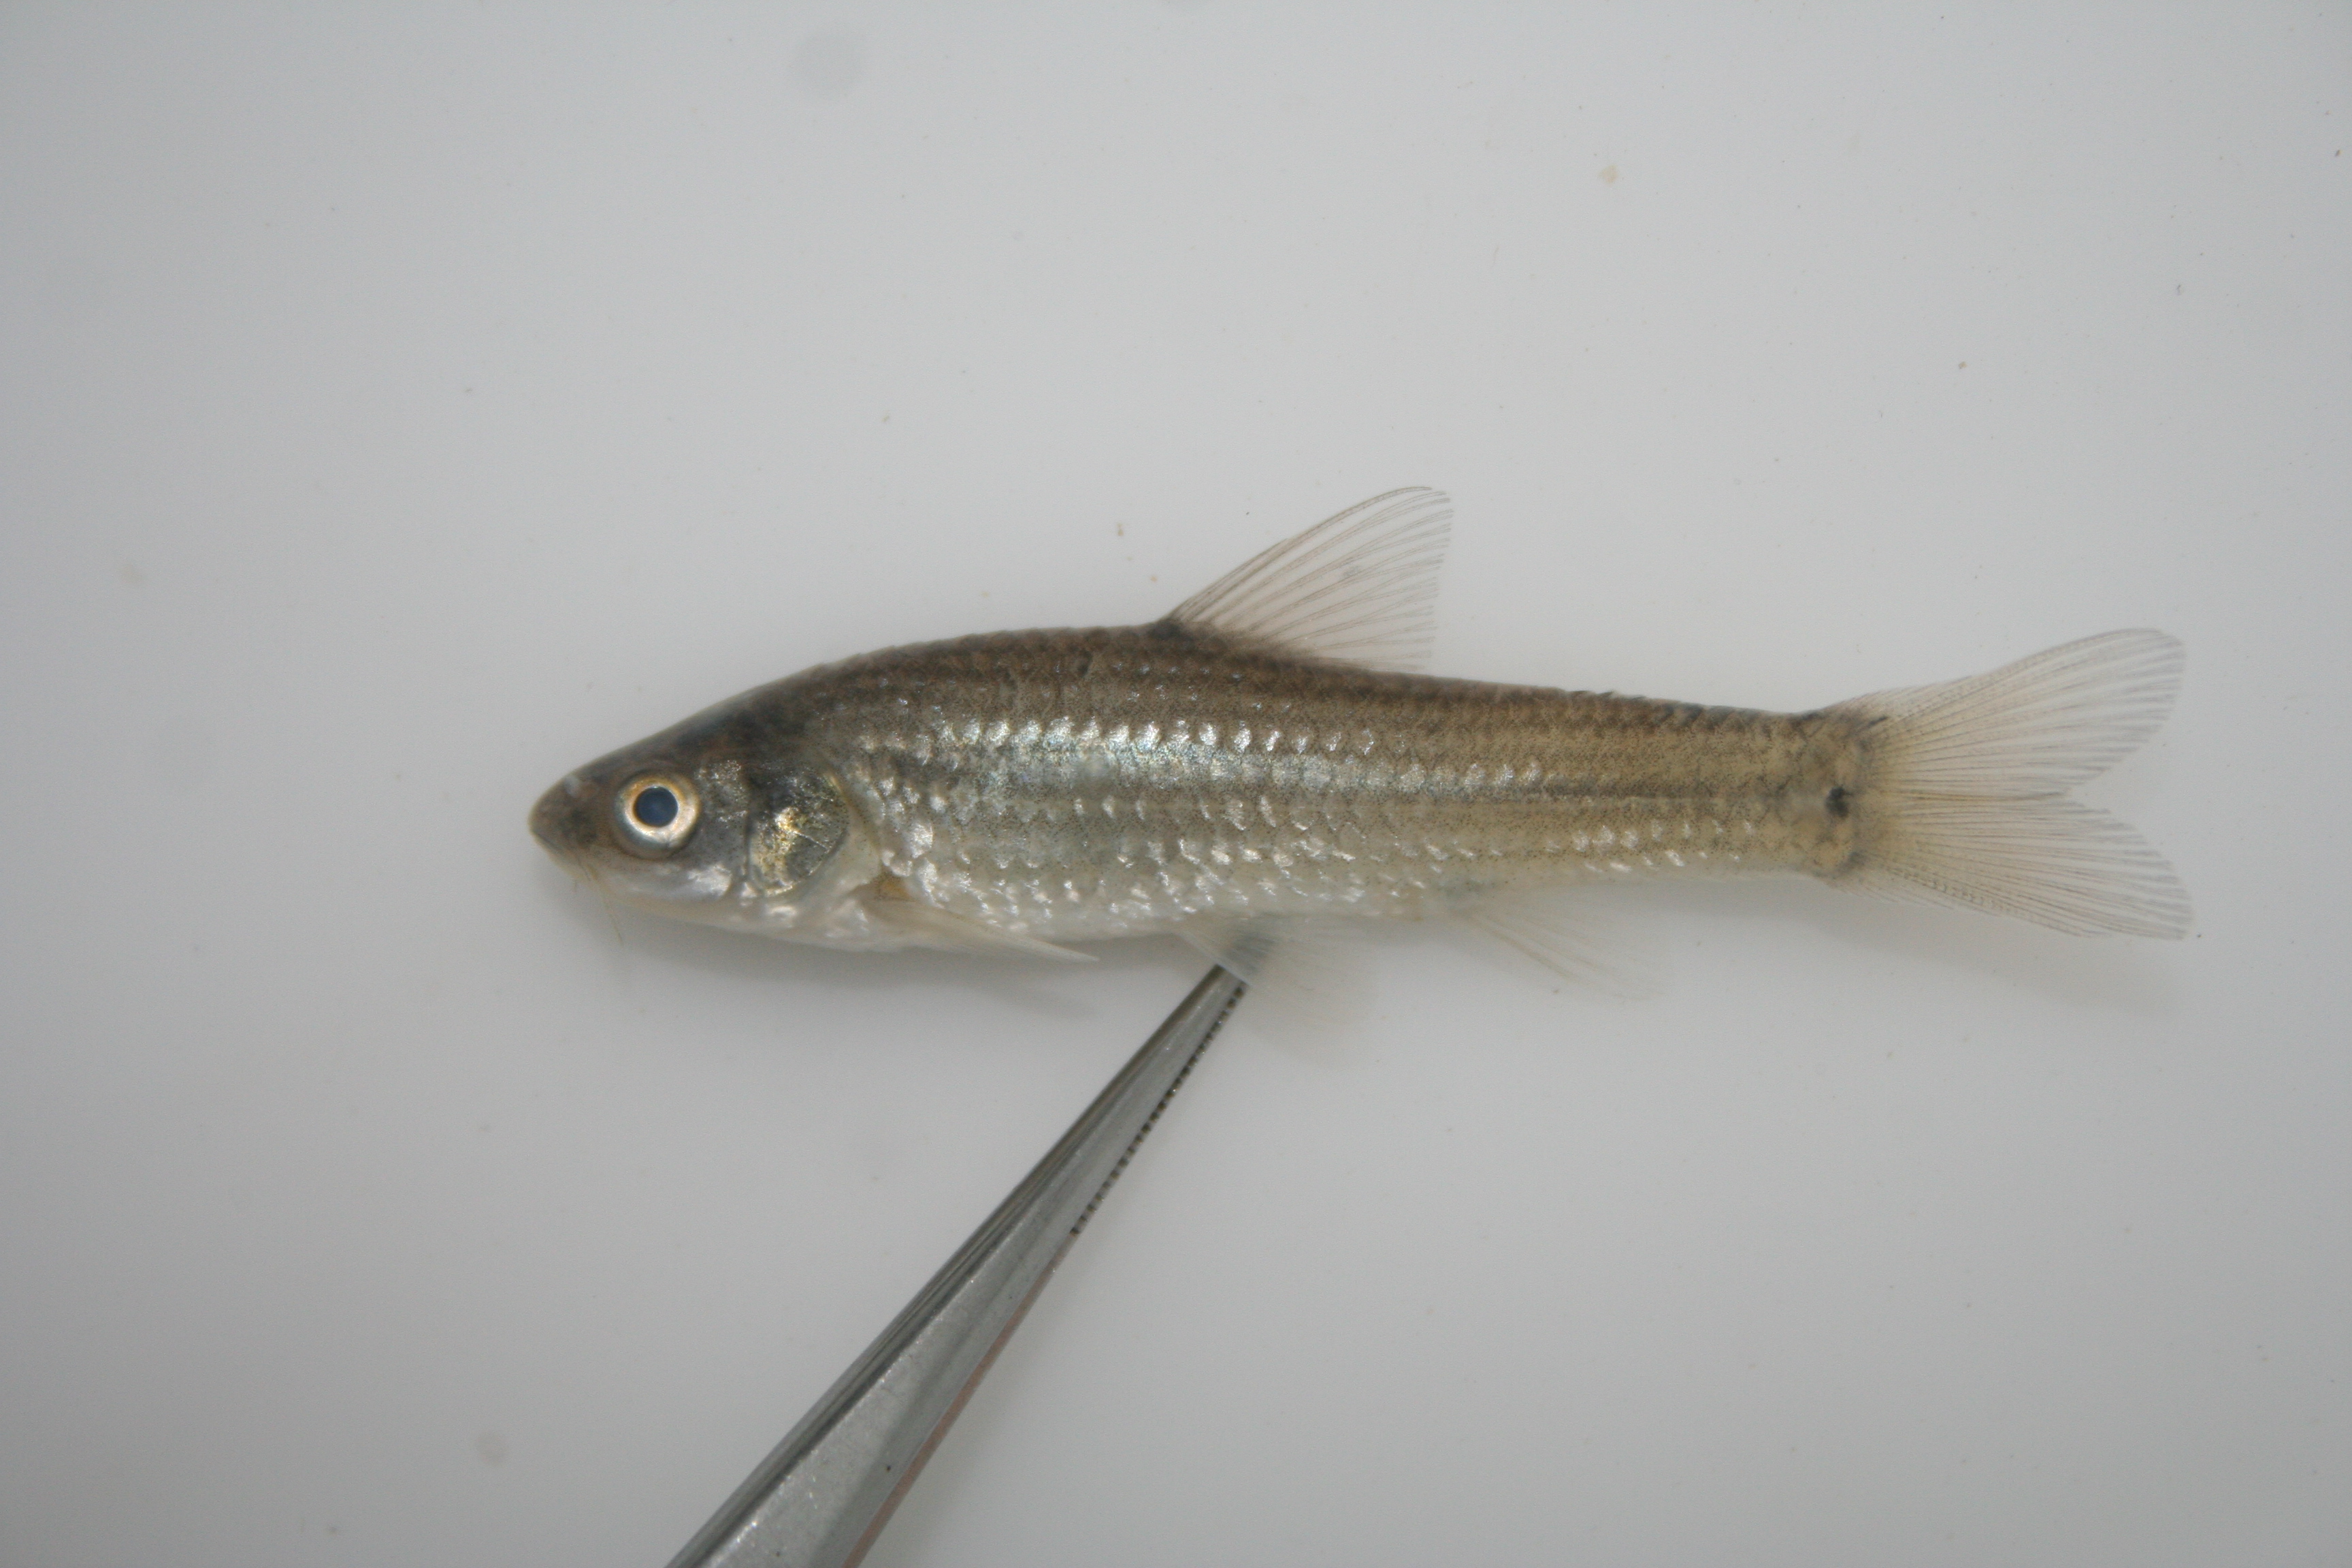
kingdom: Animalia
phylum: Chordata
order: Cypriniformes
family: Cyprinidae
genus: Barbus
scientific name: Barbus
